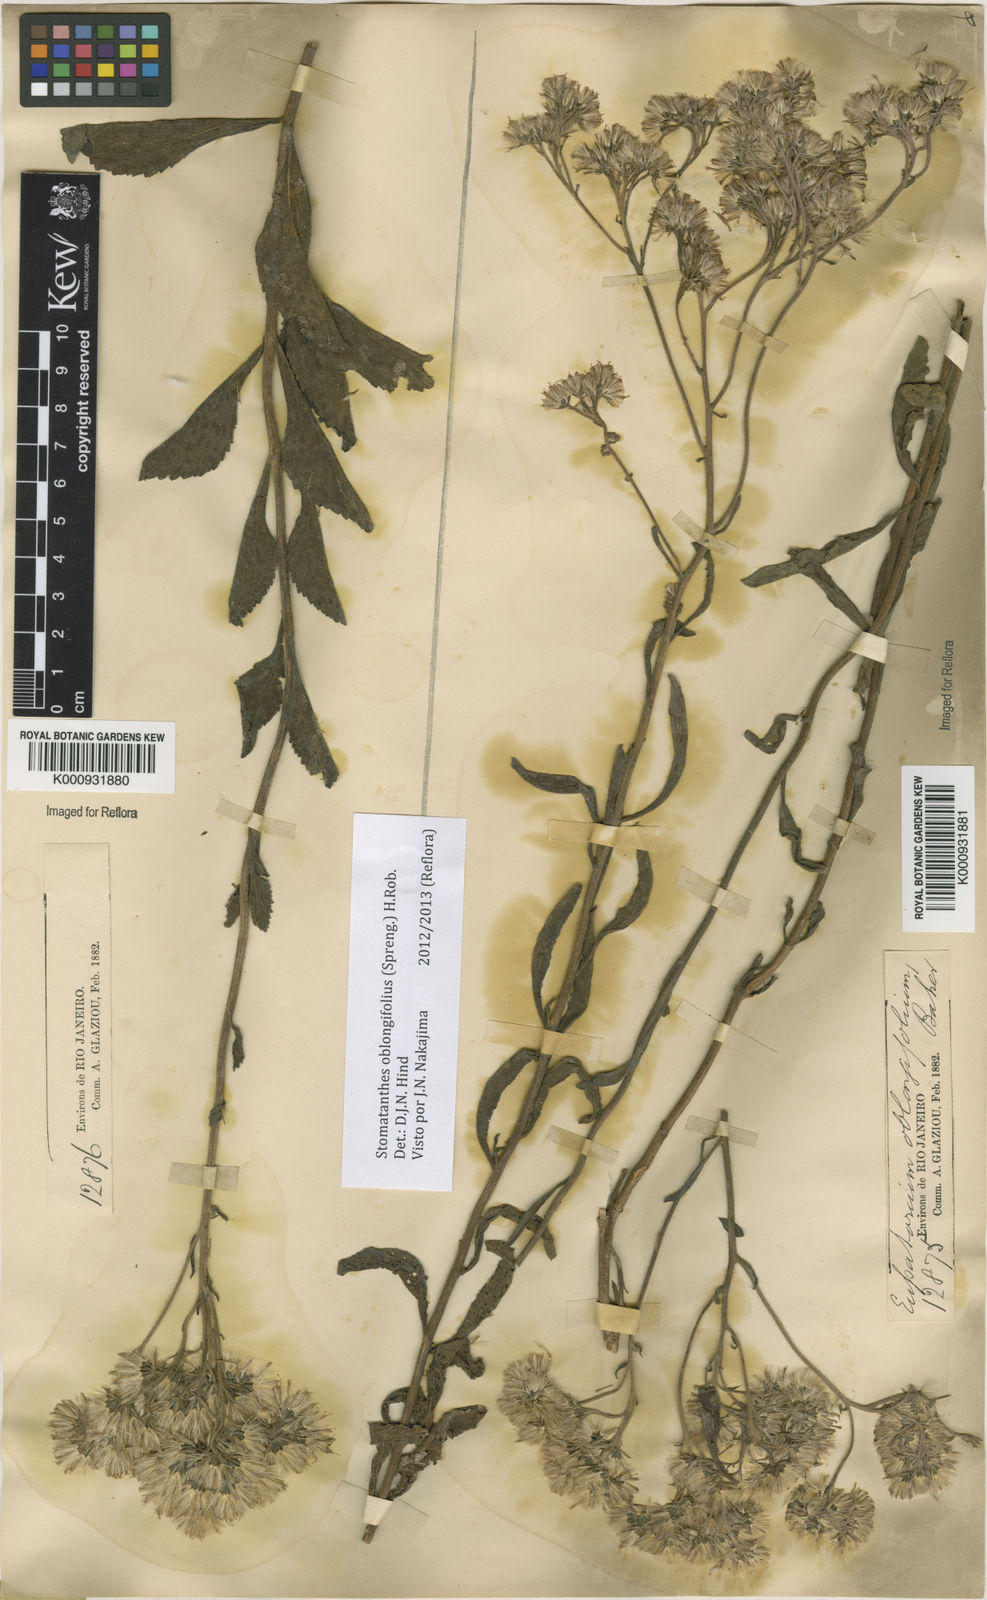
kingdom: Plantae
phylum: Tracheophyta
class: Magnoliopsida
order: Asterales
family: Asteraceae
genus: Stomatanthes
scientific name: Stomatanthes oblongifolius
